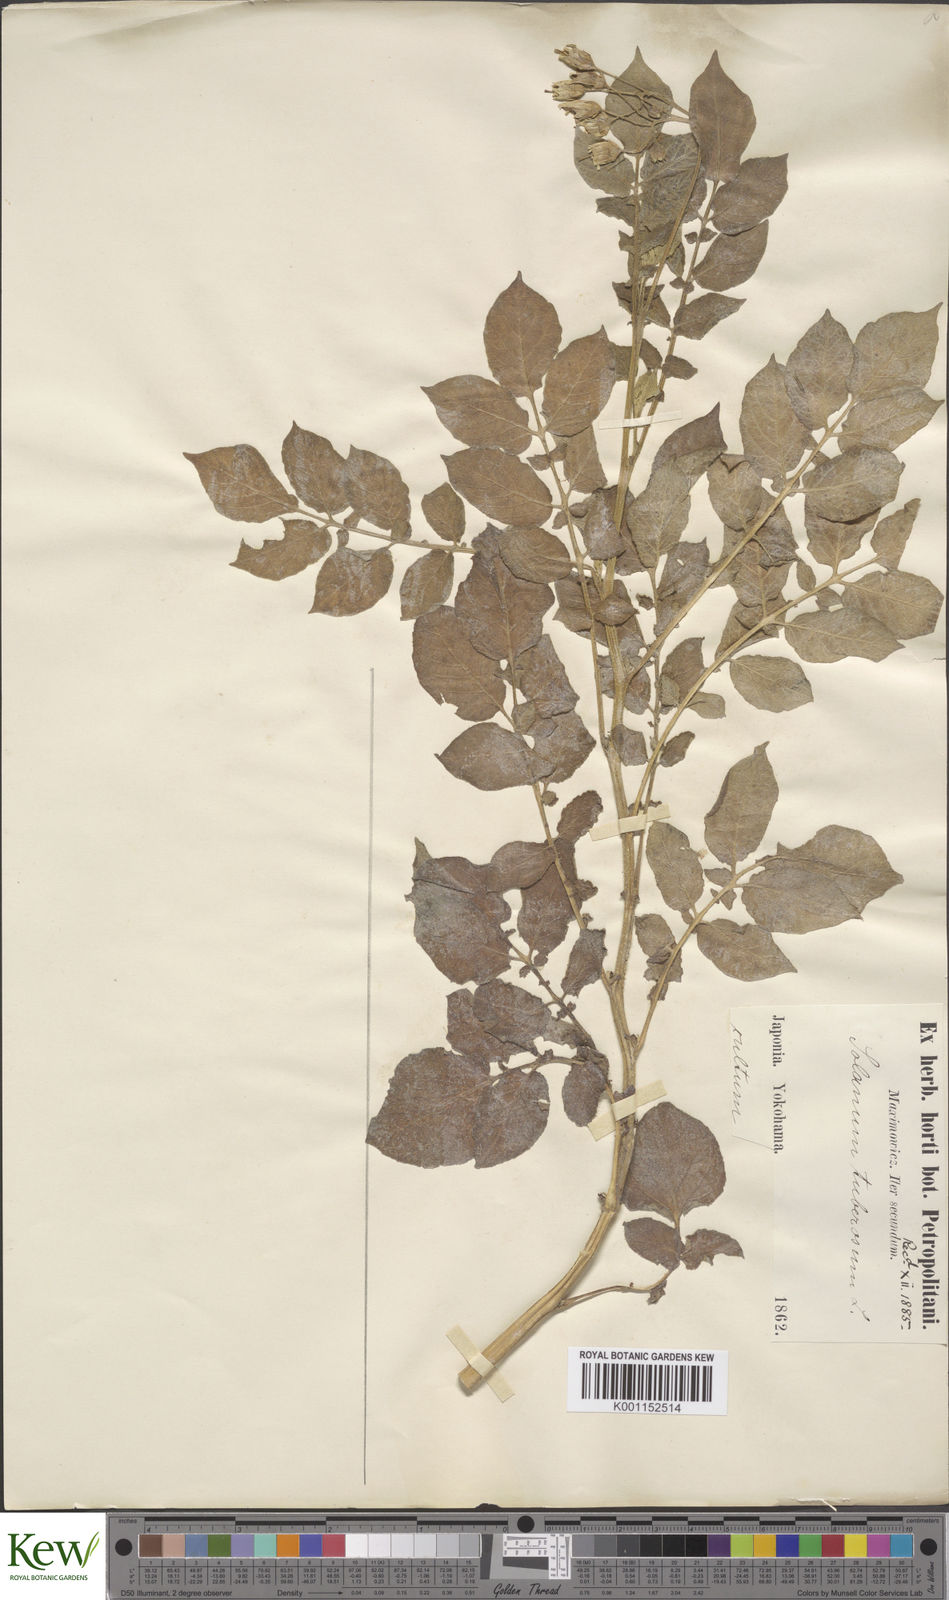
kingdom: Plantae
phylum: Tracheophyta
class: Magnoliopsida
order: Solanales
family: Solanaceae
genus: Solanum
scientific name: Solanum tuberosum
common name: Potato
